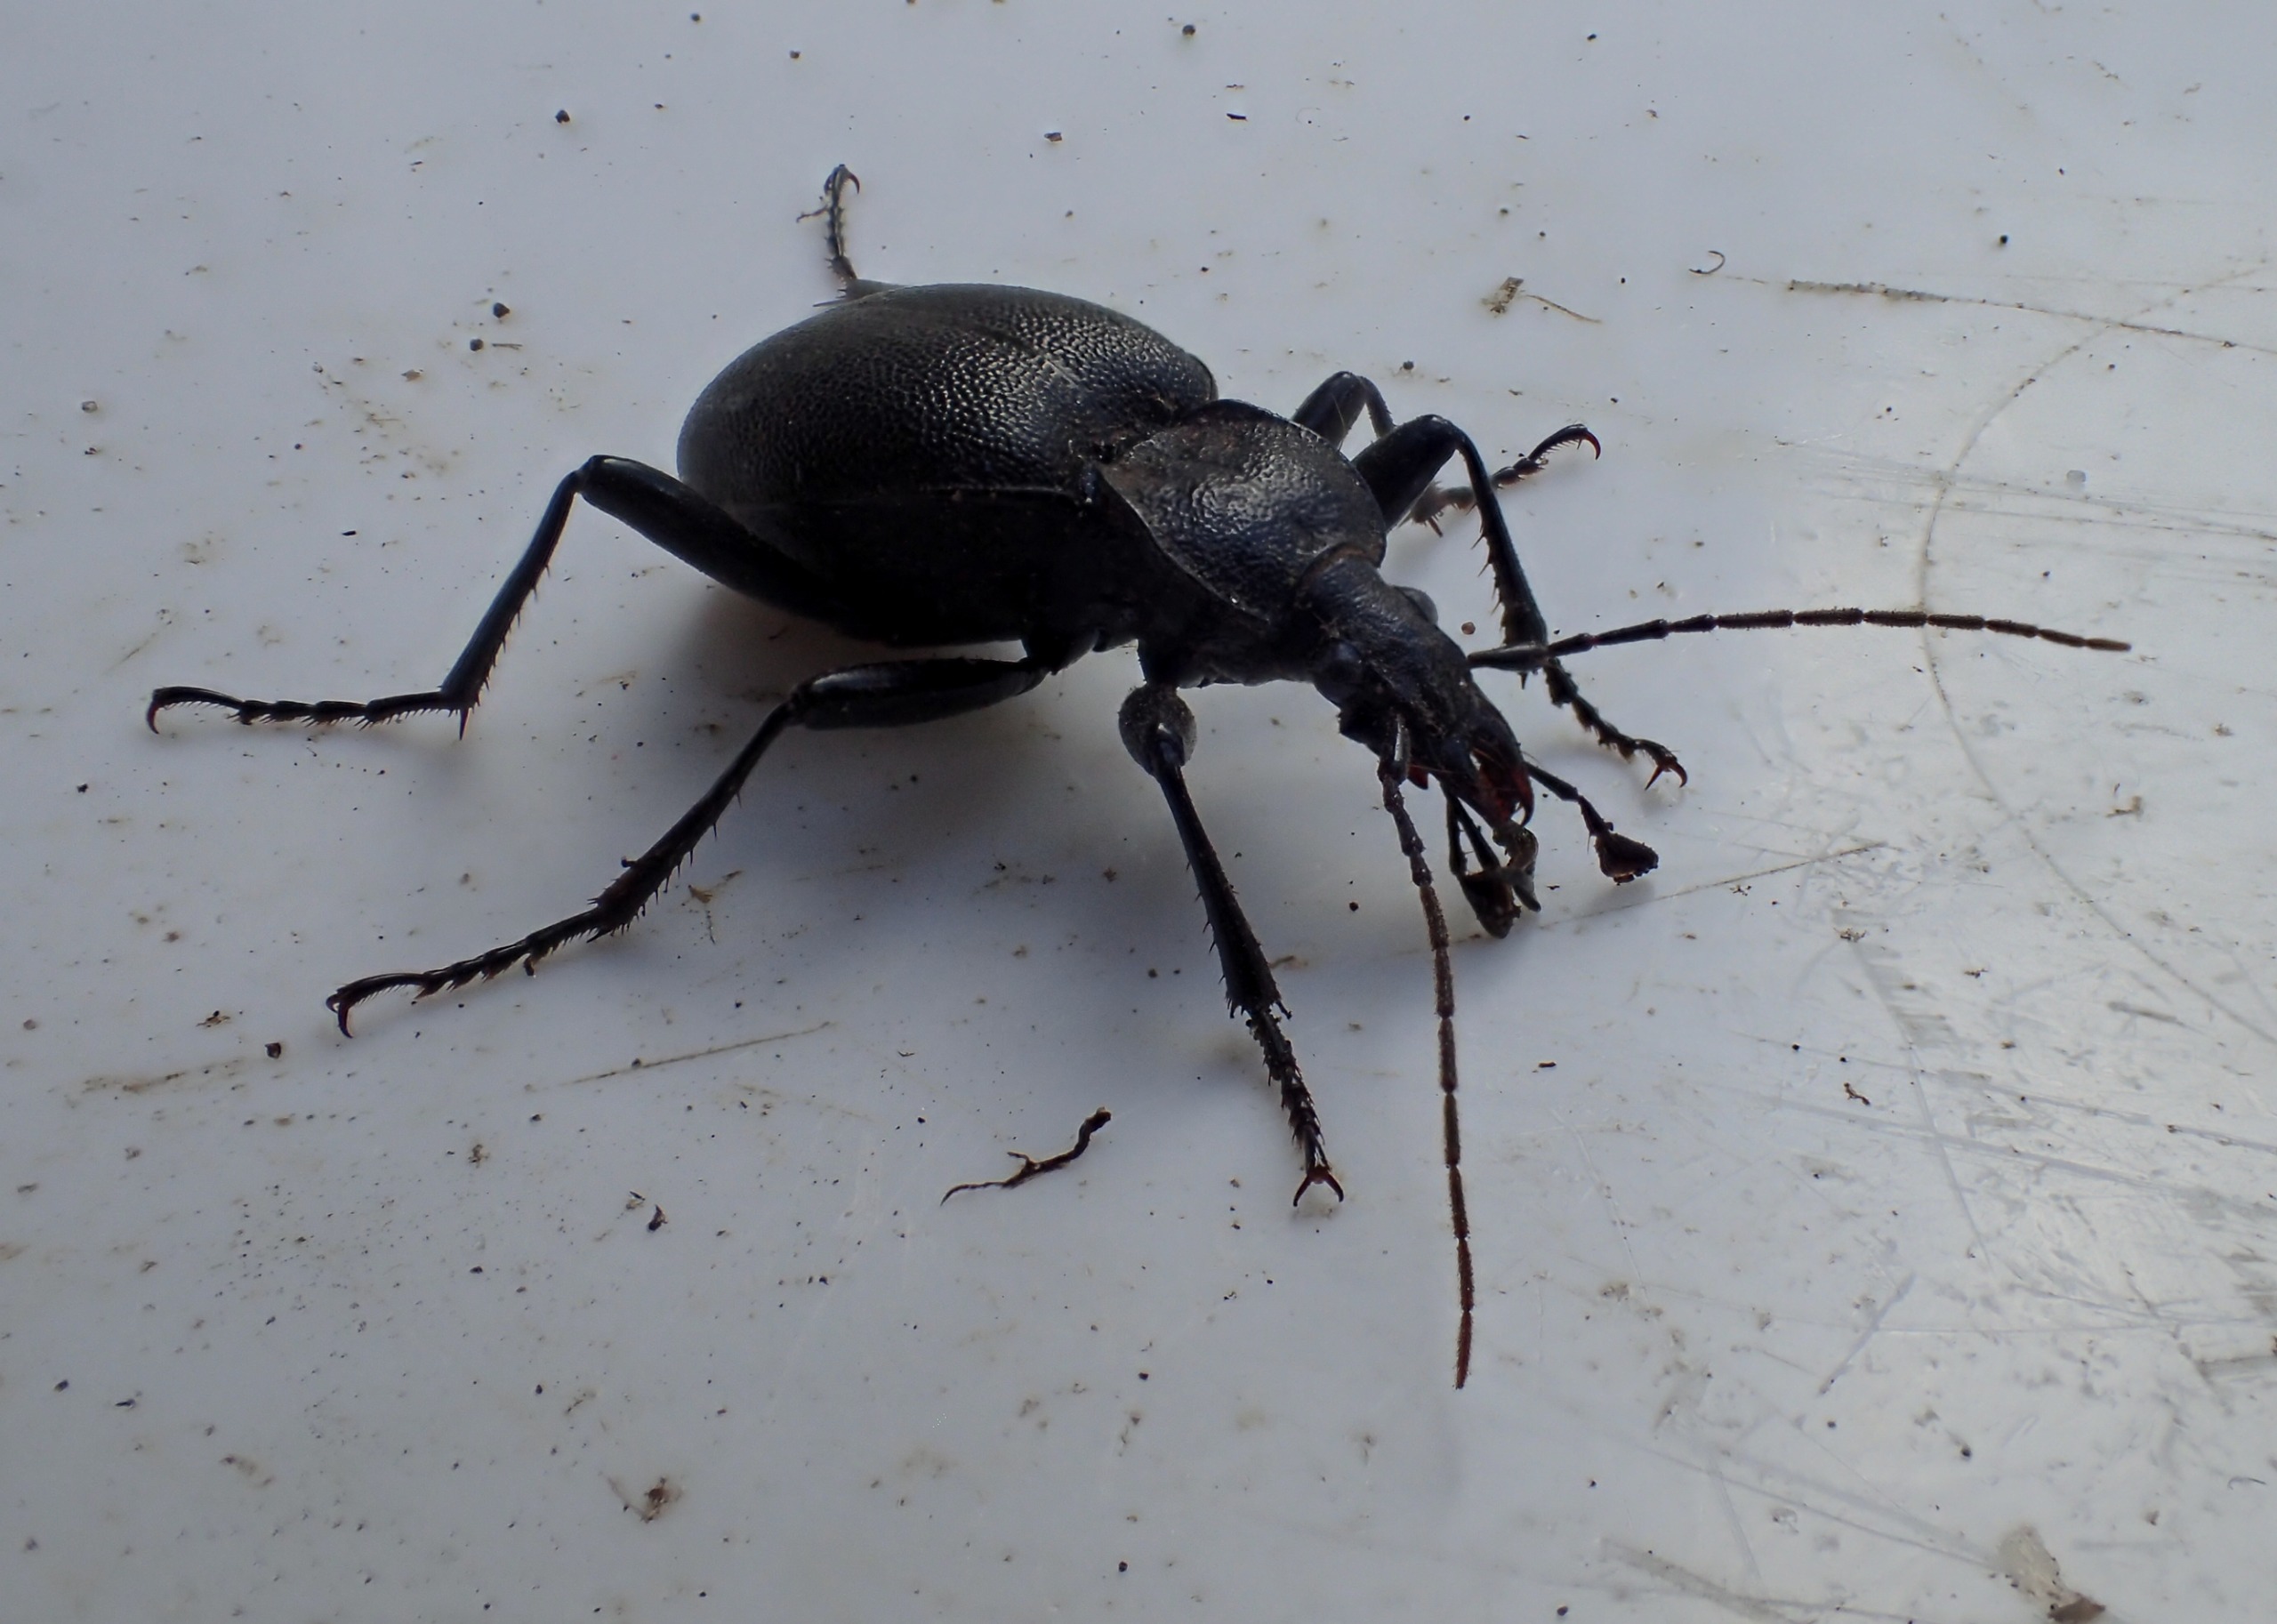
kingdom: Animalia
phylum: Arthropoda
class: Insecta
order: Coleoptera
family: Carabidae
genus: Cychrus
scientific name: Cychrus caraboides
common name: Sneglerøver
